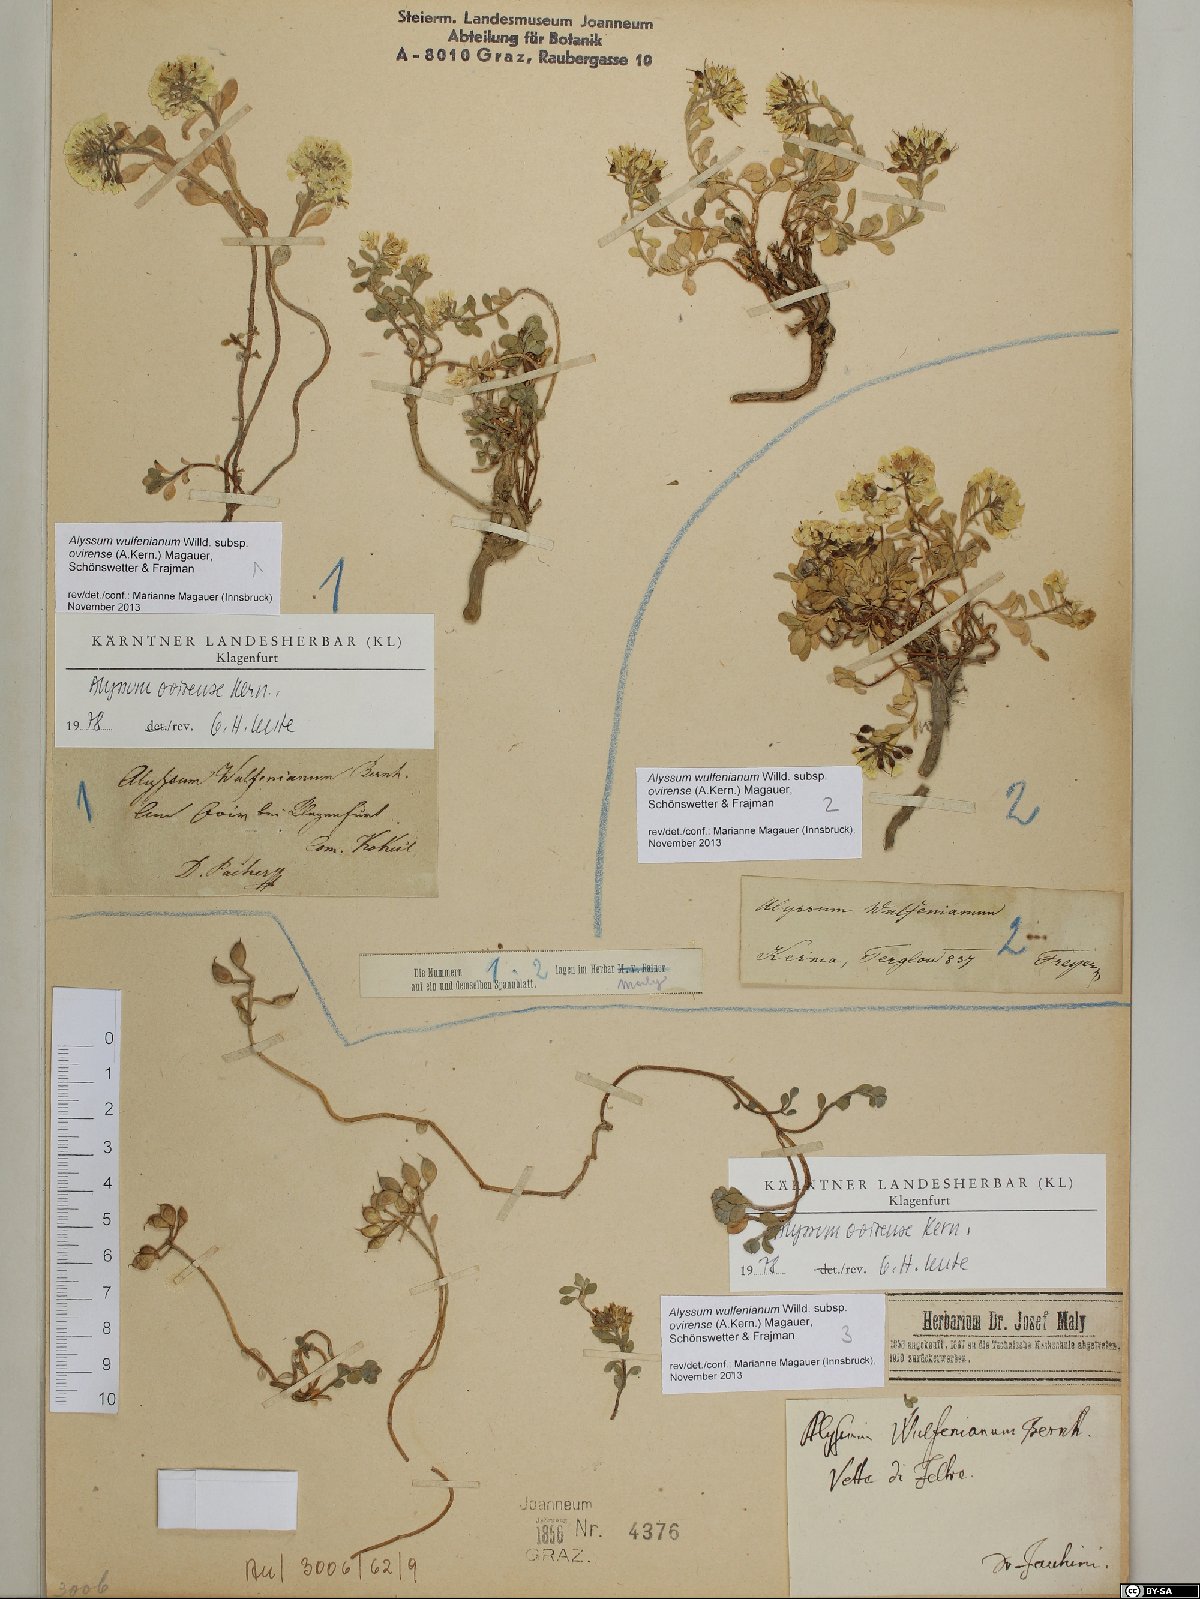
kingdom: Plantae
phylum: Tracheophyta
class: Magnoliopsida
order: Brassicales
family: Brassicaceae
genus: Alyssum
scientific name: Alyssum wulfenianum
